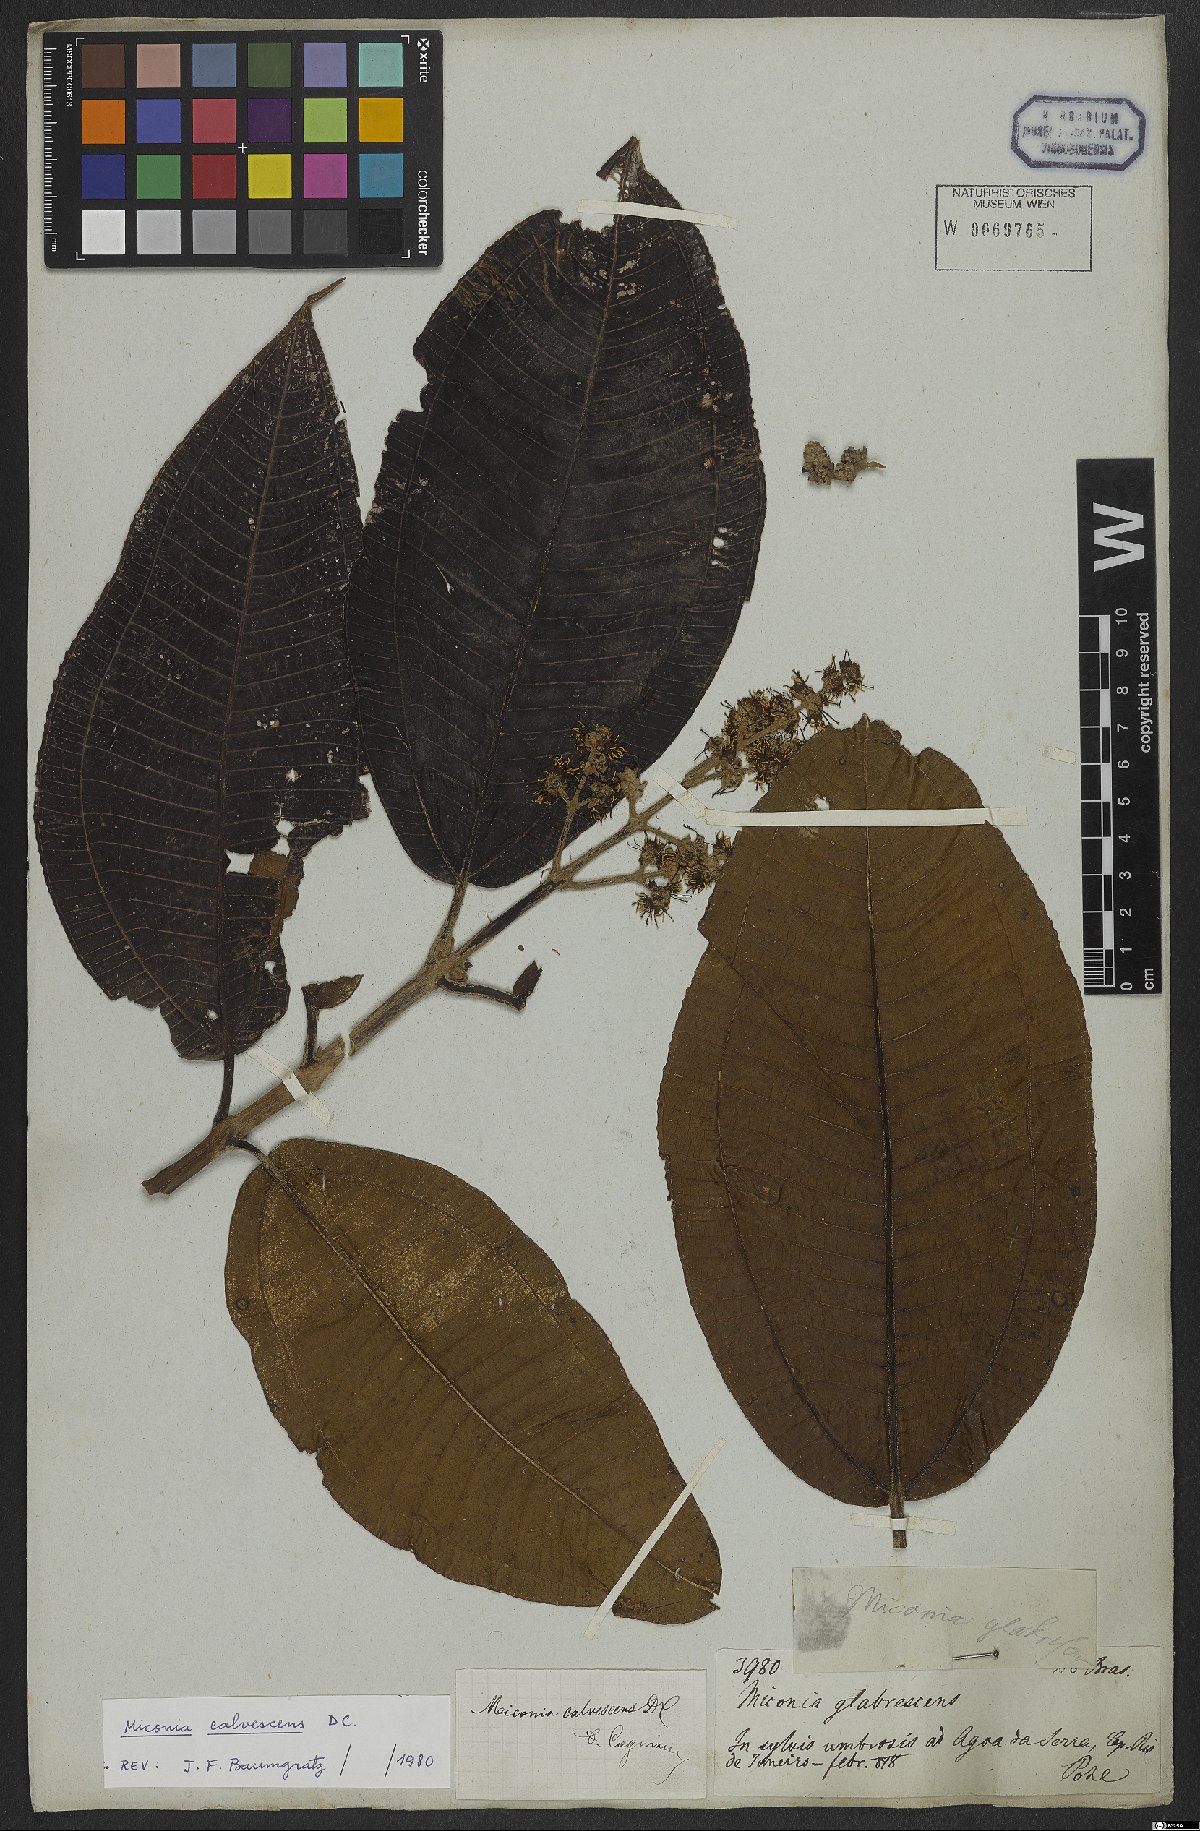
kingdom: Plantae
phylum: Tracheophyta
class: Magnoliopsida
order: Myrtales
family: Melastomataceae
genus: Miconia
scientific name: Miconia calvescens
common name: Purple plague
